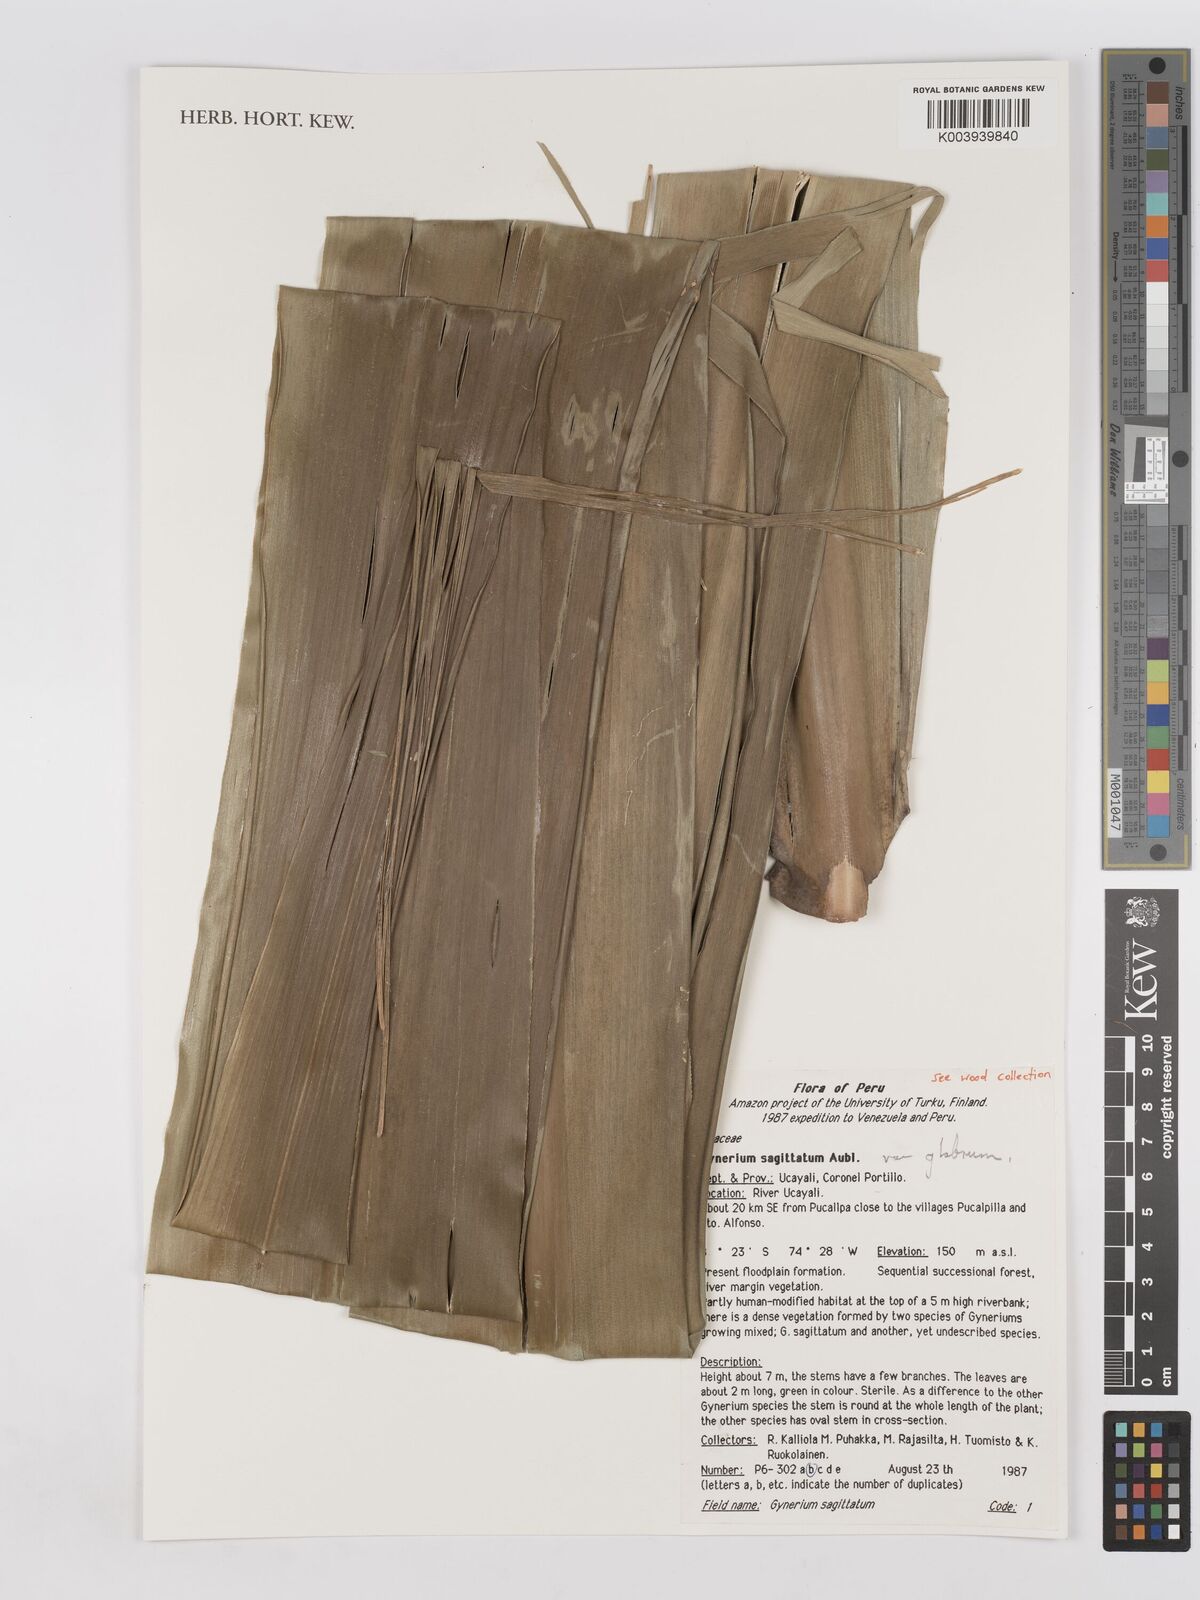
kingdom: Plantae
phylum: Tracheophyta
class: Liliopsida
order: Poales
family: Poaceae
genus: Gynerium
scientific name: Gynerium sagittatum
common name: Wild cane
